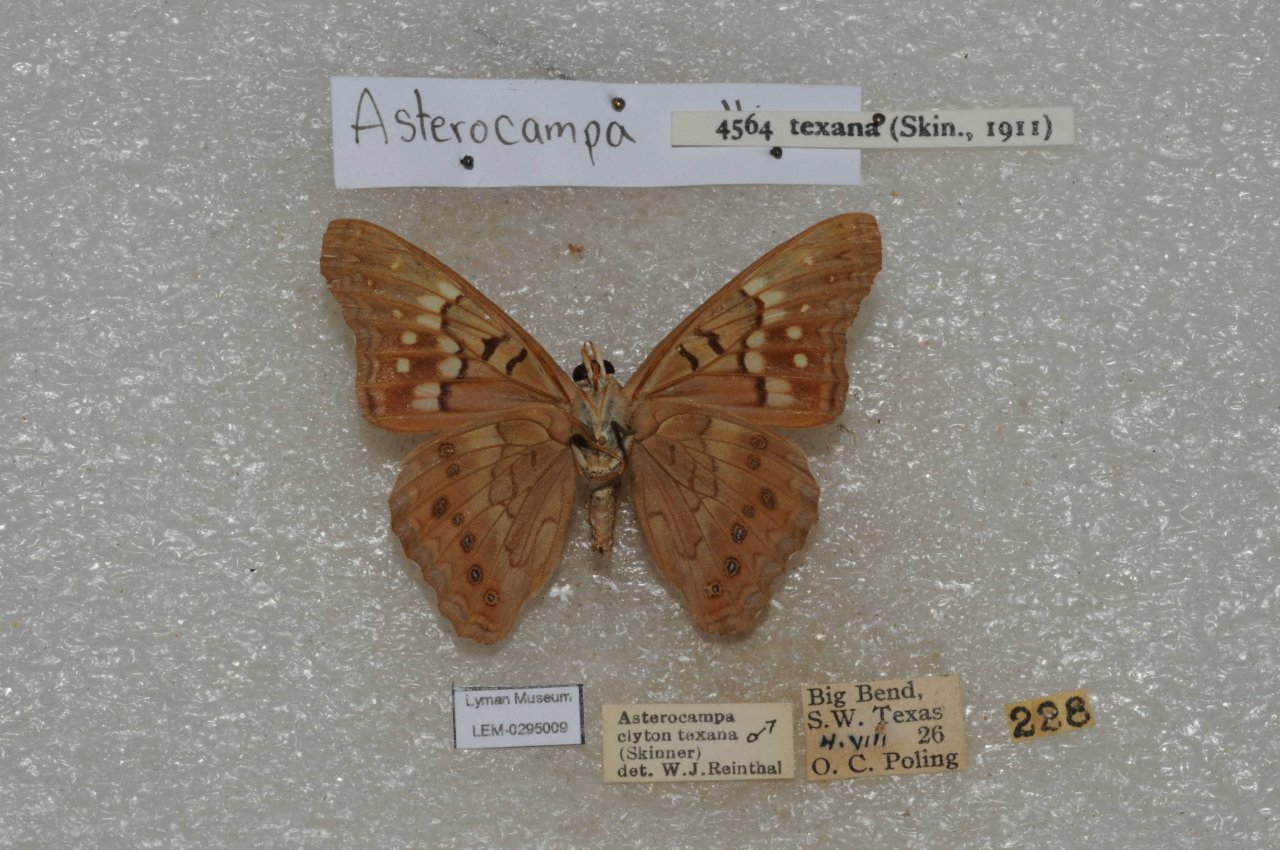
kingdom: Animalia
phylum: Arthropoda
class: Insecta
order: Lepidoptera
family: Nymphalidae
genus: Anthanassa
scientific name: Anthanassa texana
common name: Texan Crescent
